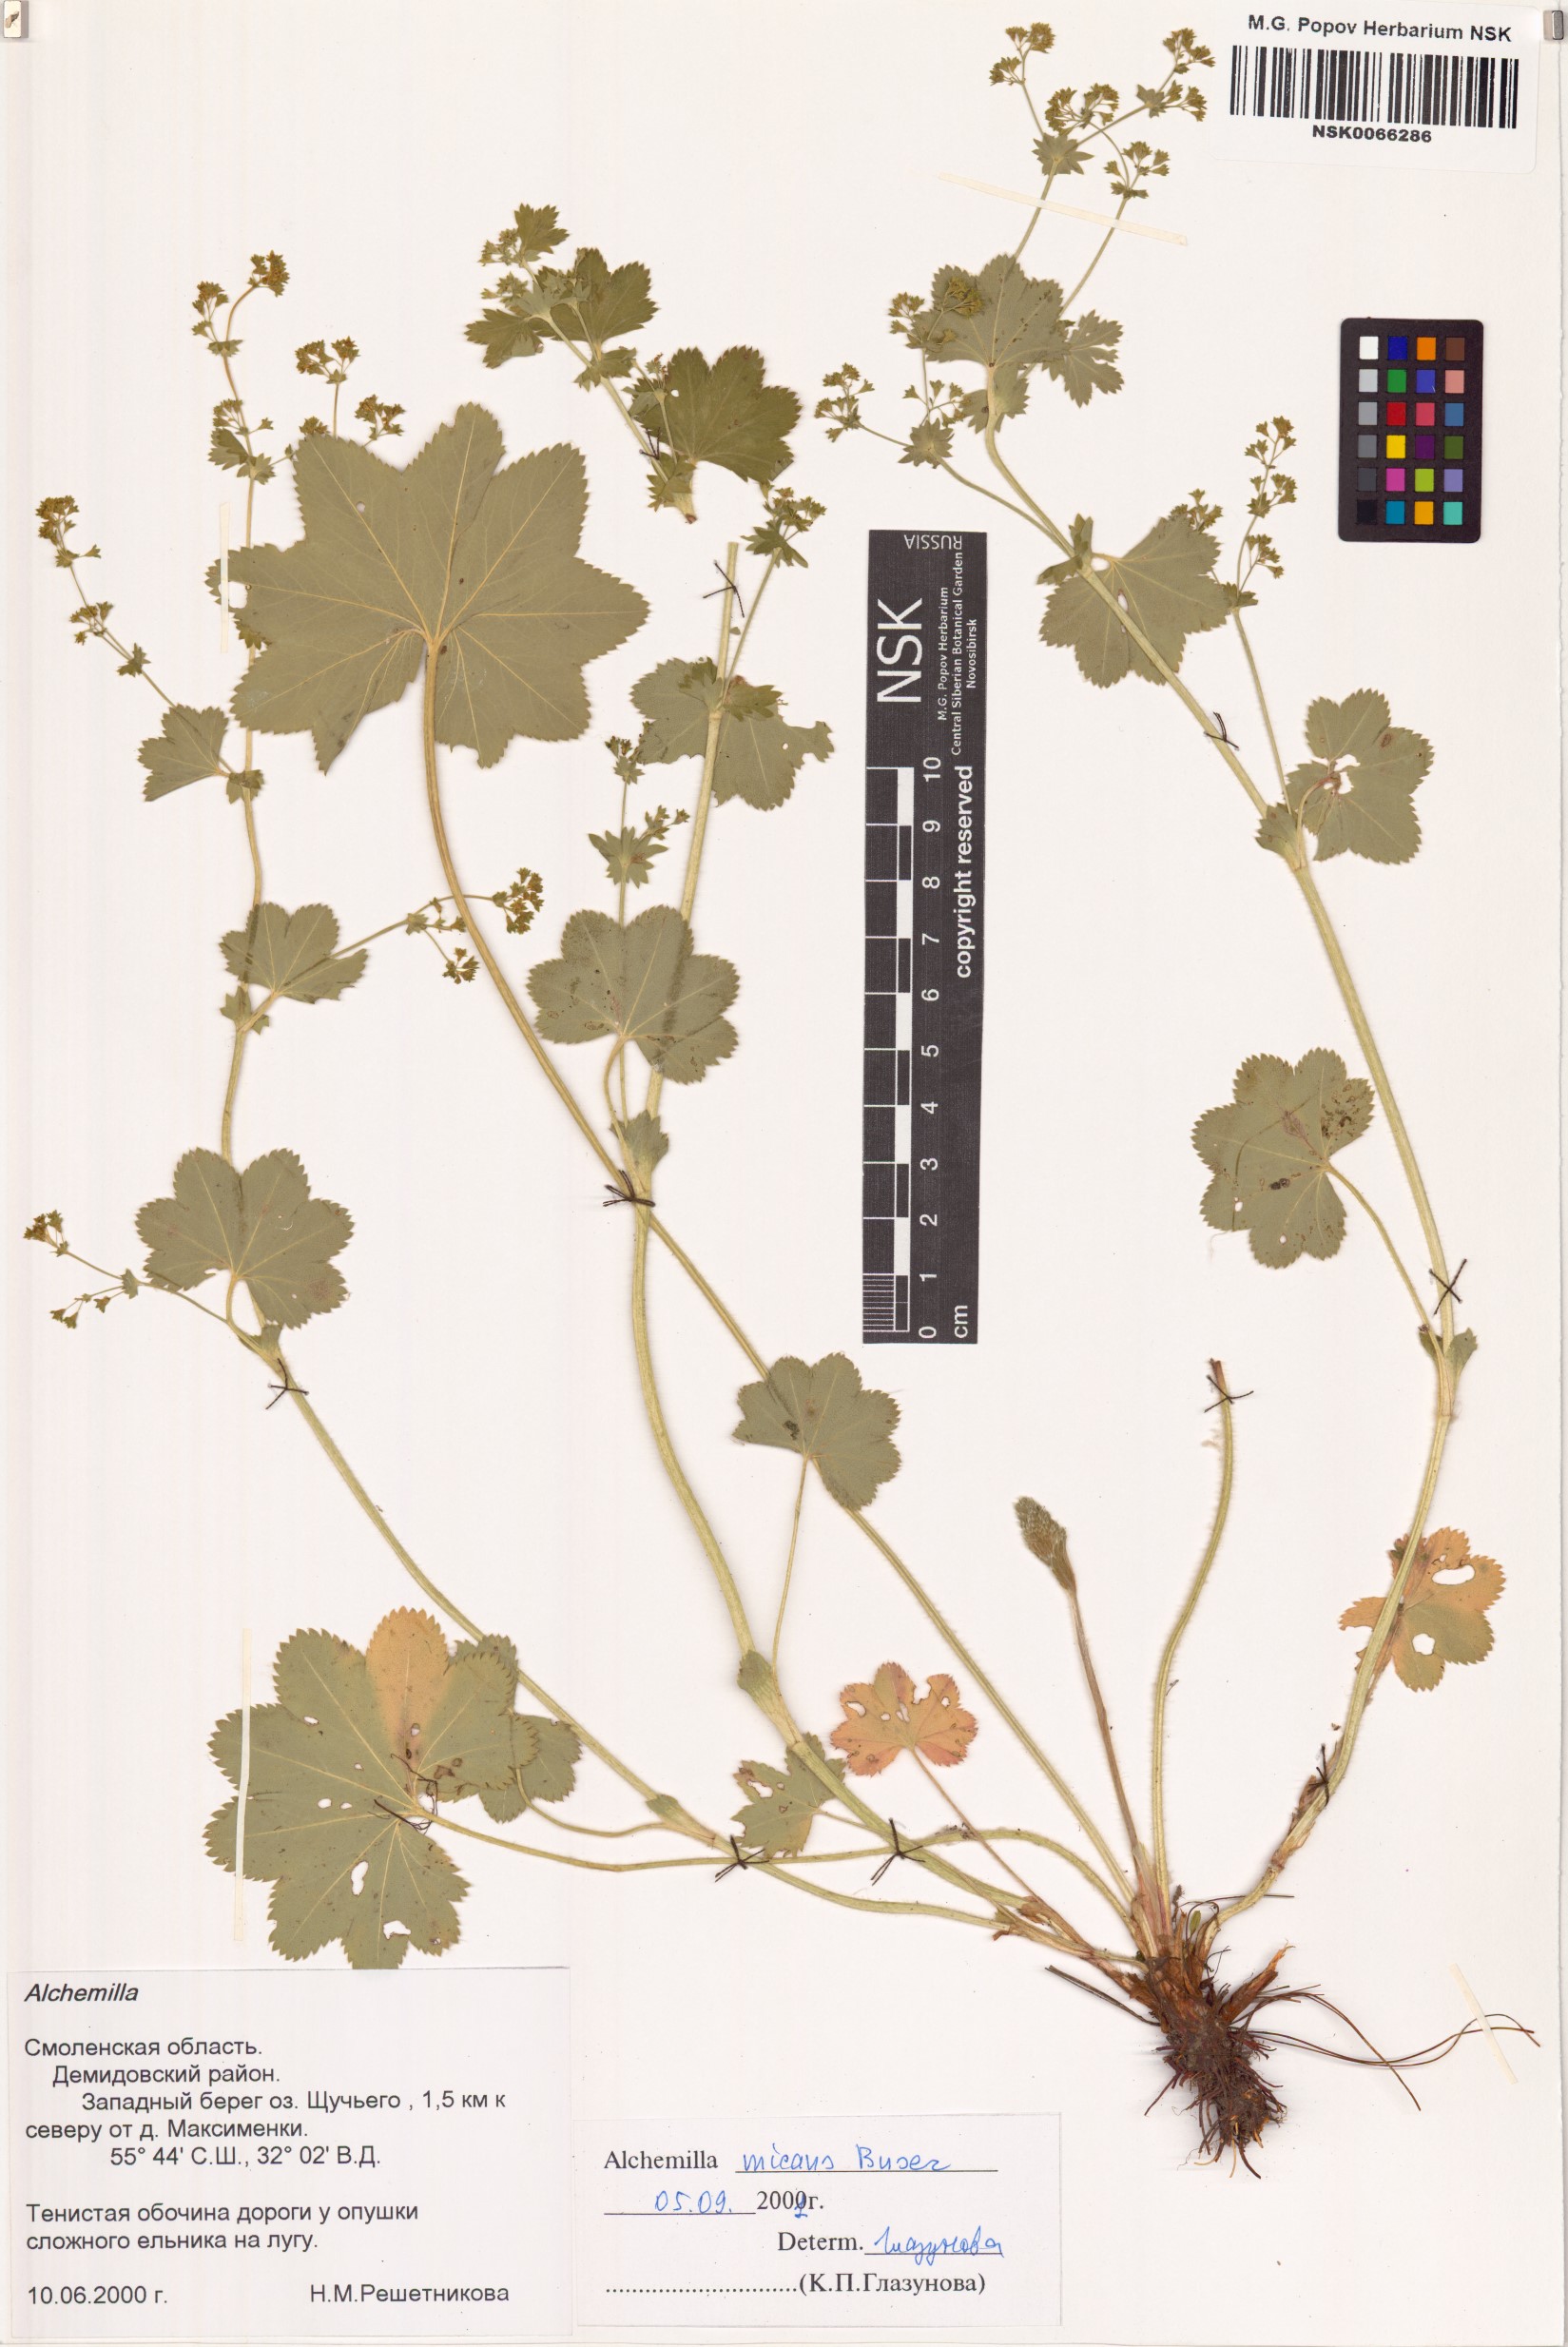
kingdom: Plantae
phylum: Tracheophyta
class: Magnoliopsida
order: Rosales
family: Rosaceae
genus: Alchemilla
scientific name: Alchemilla micans
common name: Gleaming lady's mantle
